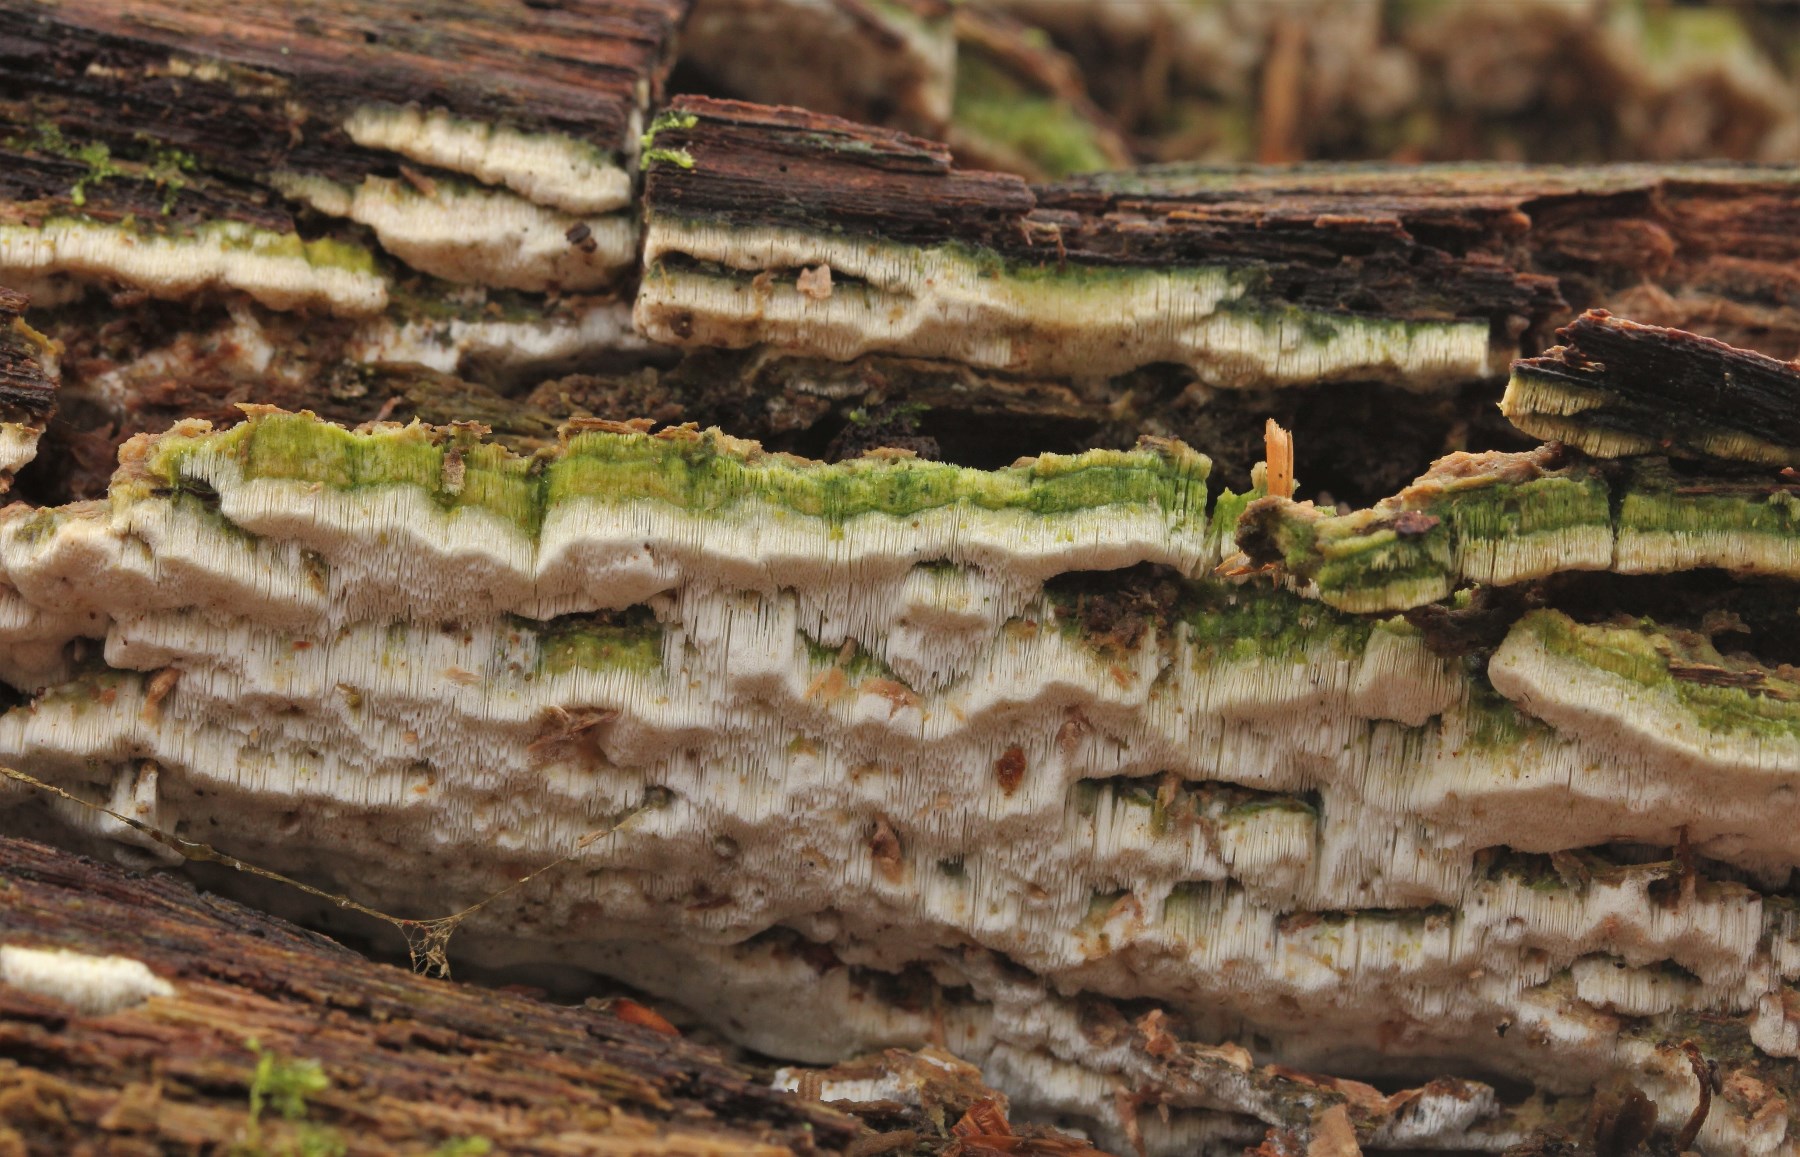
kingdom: Fungi
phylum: Basidiomycota
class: Agaricomycetes
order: Hymenochaetales
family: Rickenellaceae
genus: Sidera
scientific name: Sidera vulgaris
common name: fin flødeporesvamp
